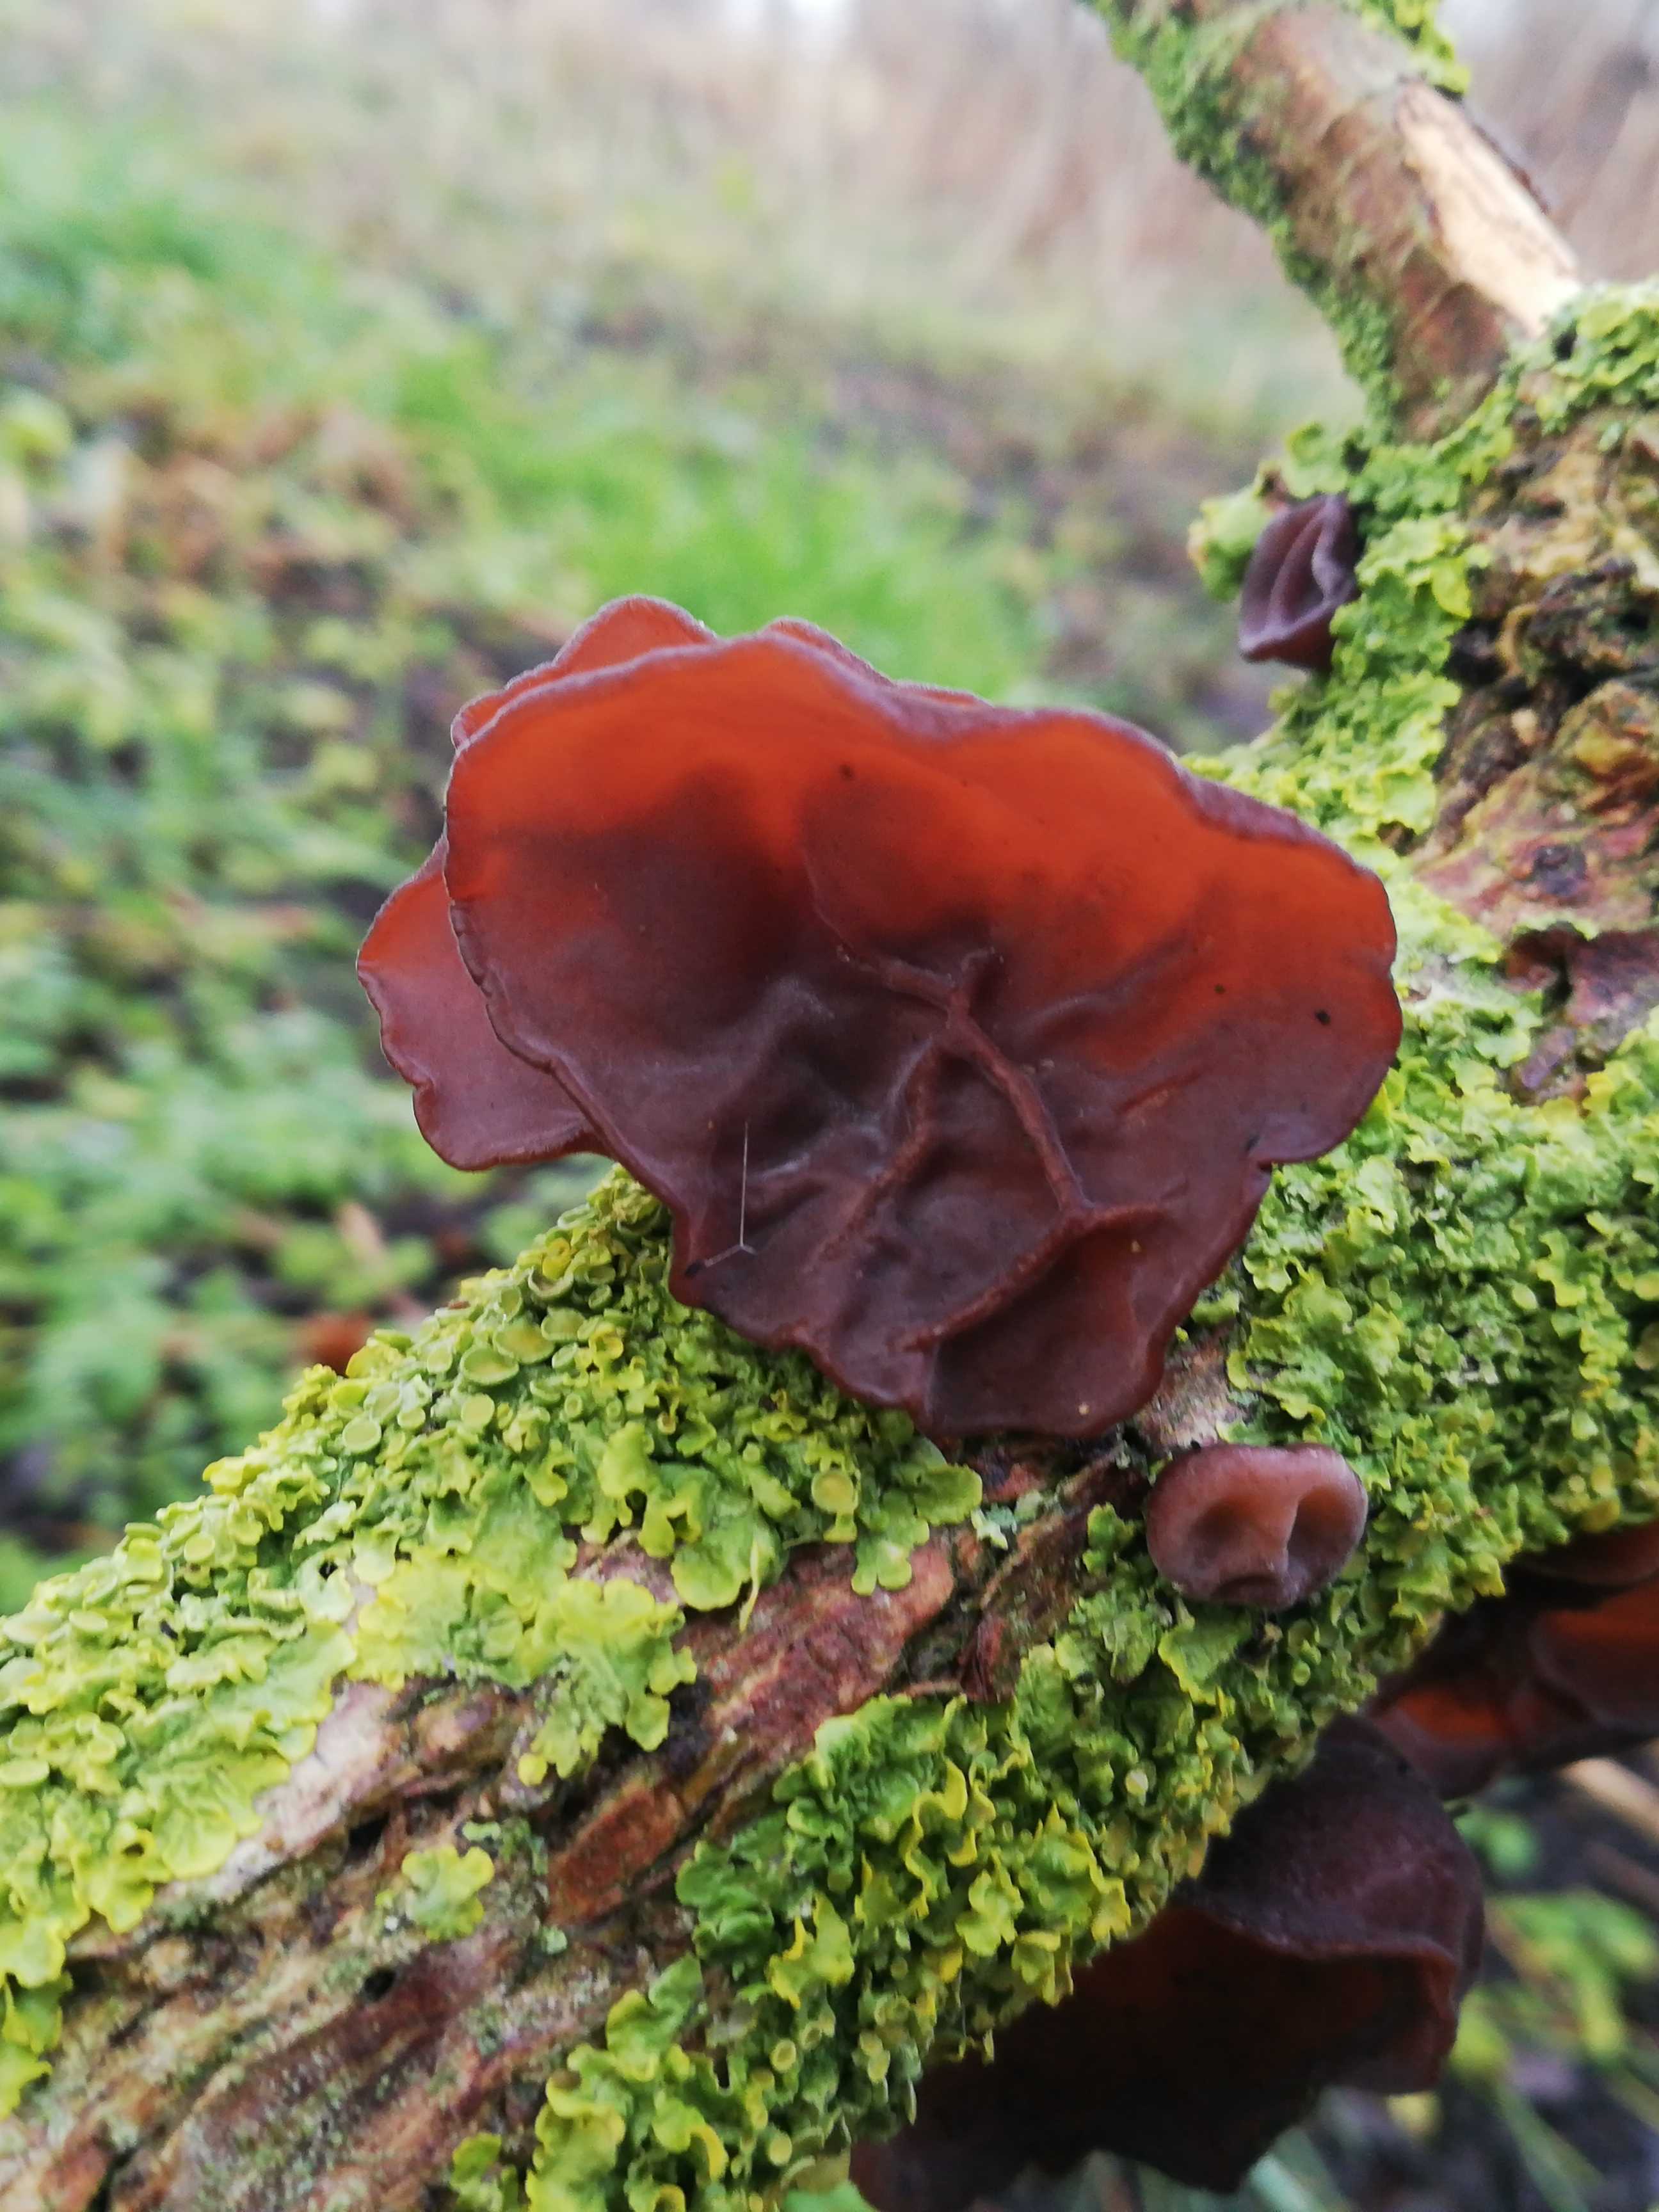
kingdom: Fungi
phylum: Basidiomycota
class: Agaricomycetes
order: Auriculariales
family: Auriculariaceae
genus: Auricularia
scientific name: Auricularia auricula-judae
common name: almindelig judasøre
